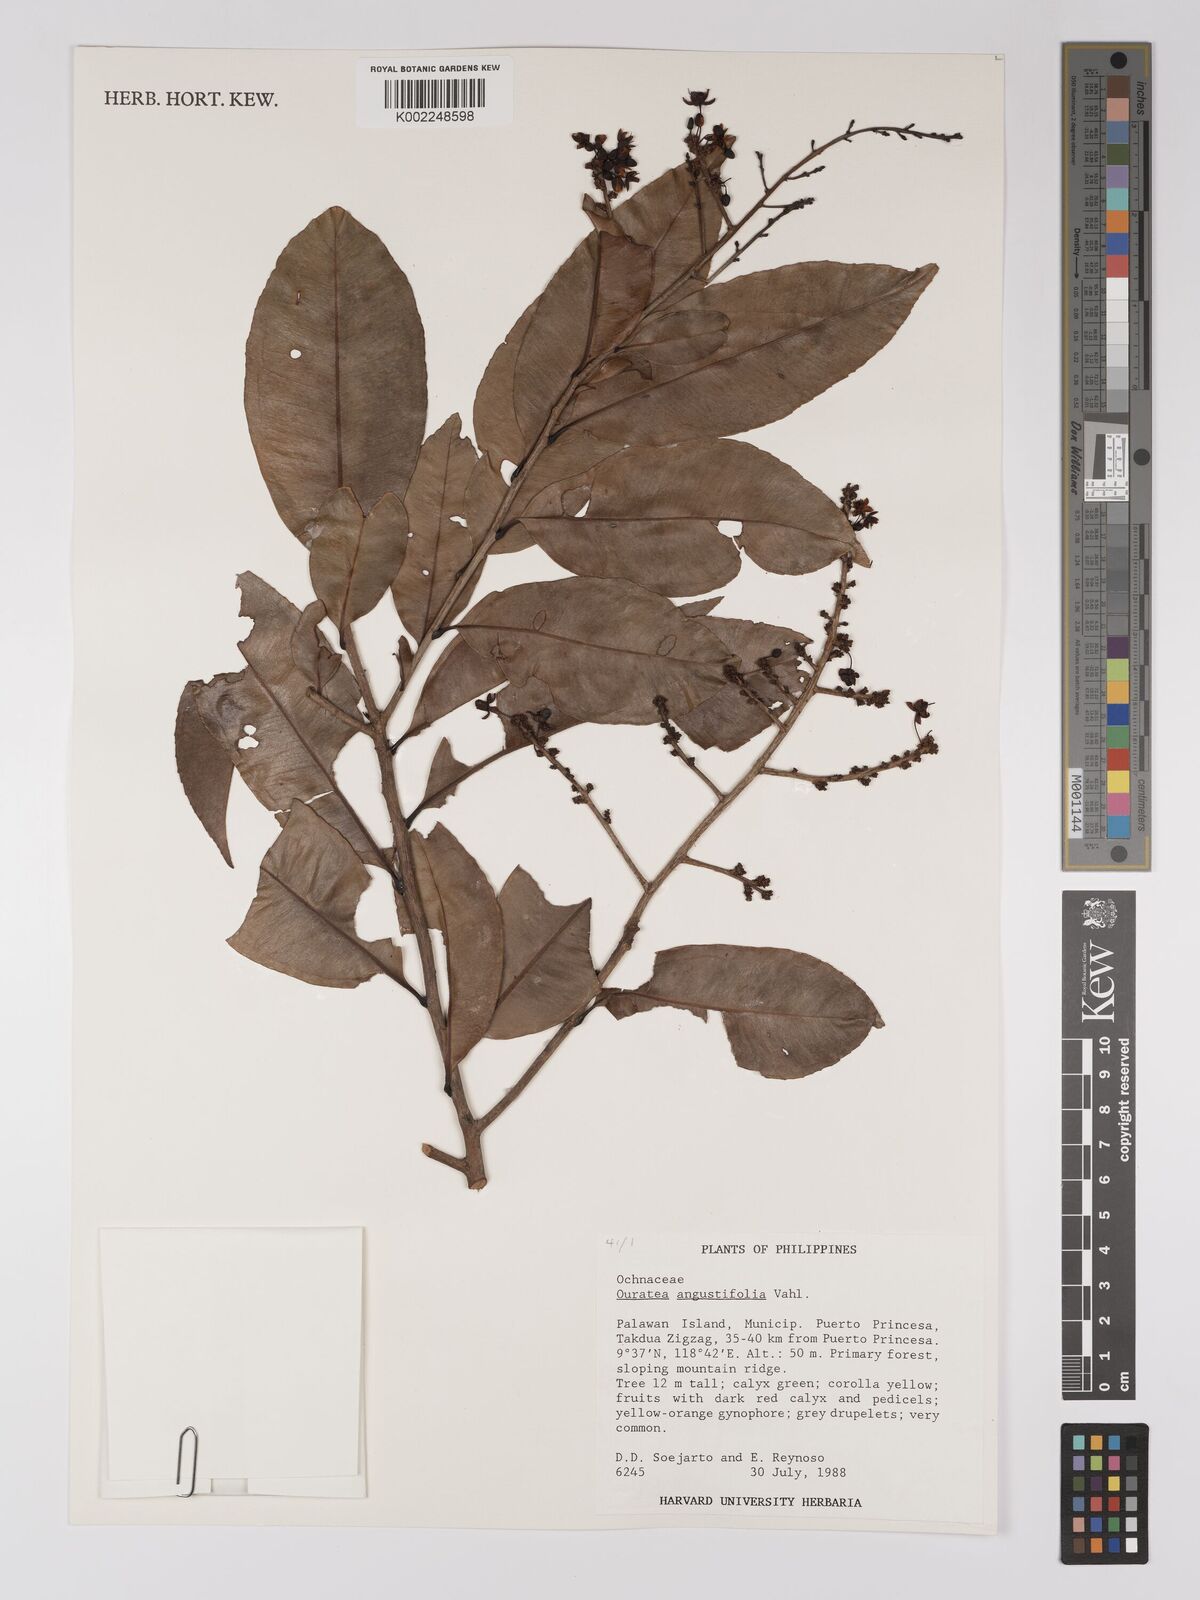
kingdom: Plantae
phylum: Tracheophyta
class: Magnoliopsida
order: Malpighiales
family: Ochnaceae
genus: Gomphia
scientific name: Gomphia serrata
